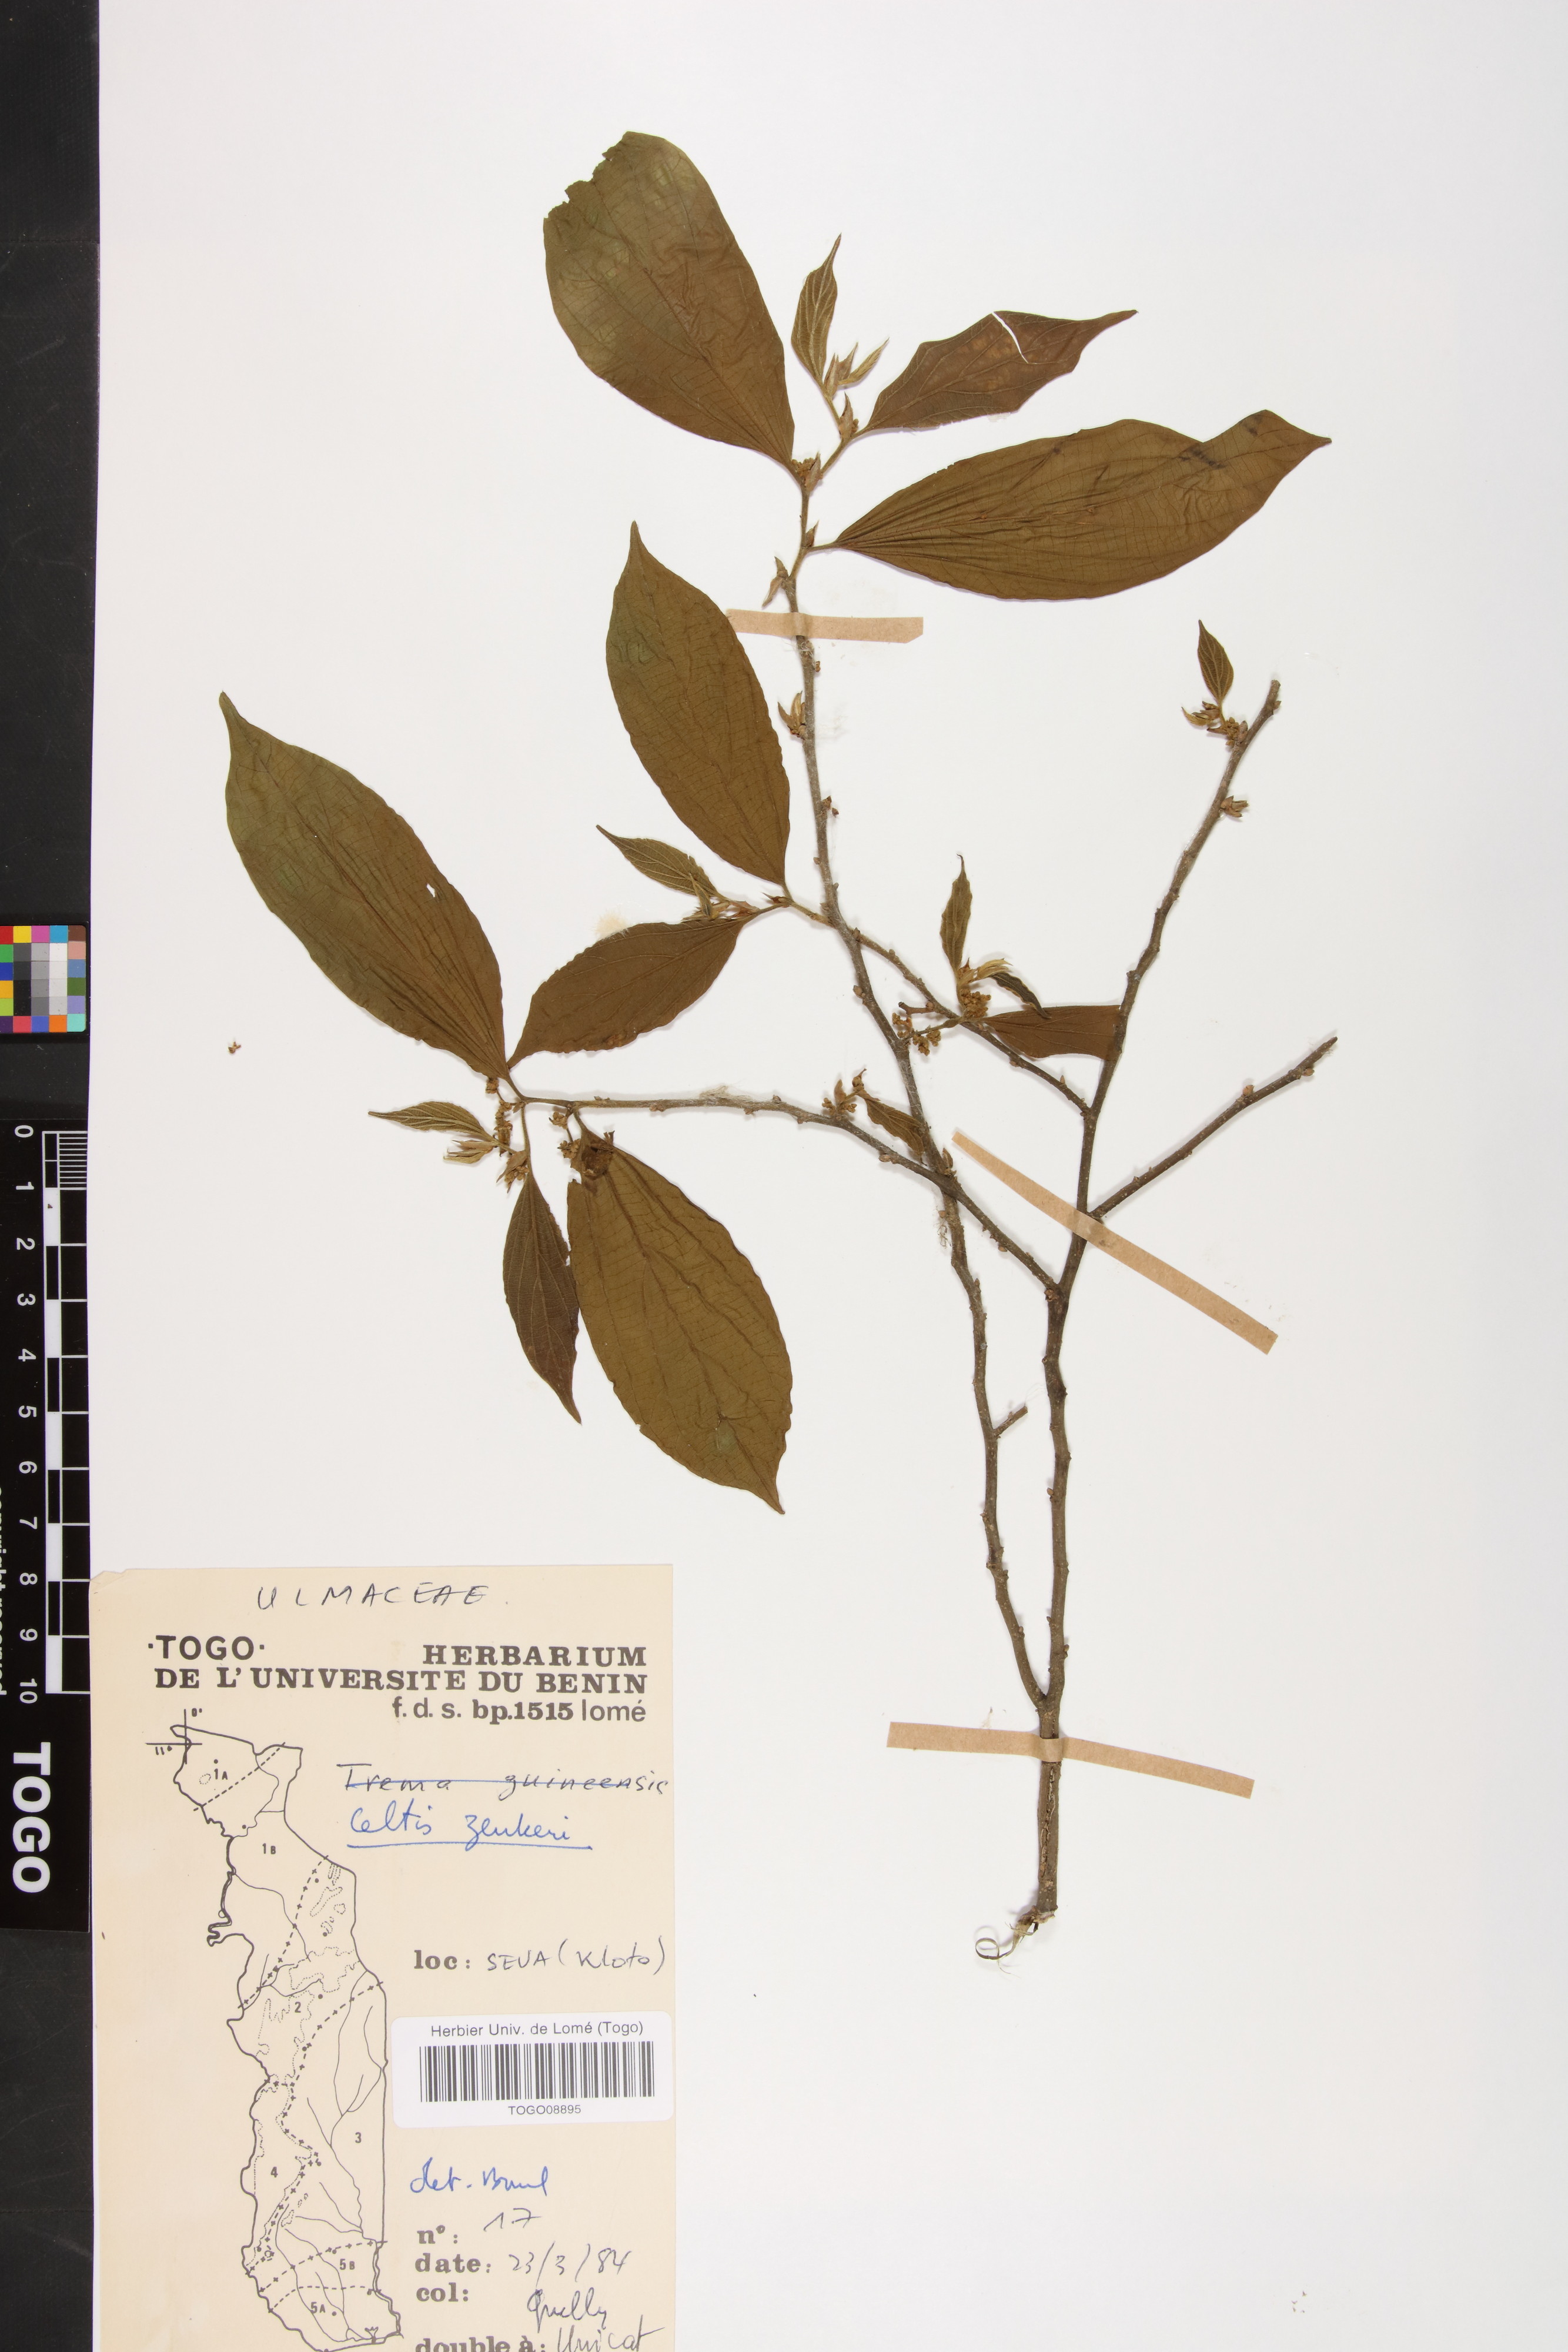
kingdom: Plantae
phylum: Tracheophyta
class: Magnoliopsida
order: Rosales
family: Cannabaceae
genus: Celtis
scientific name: Celtis zenkeri
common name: African celtis
